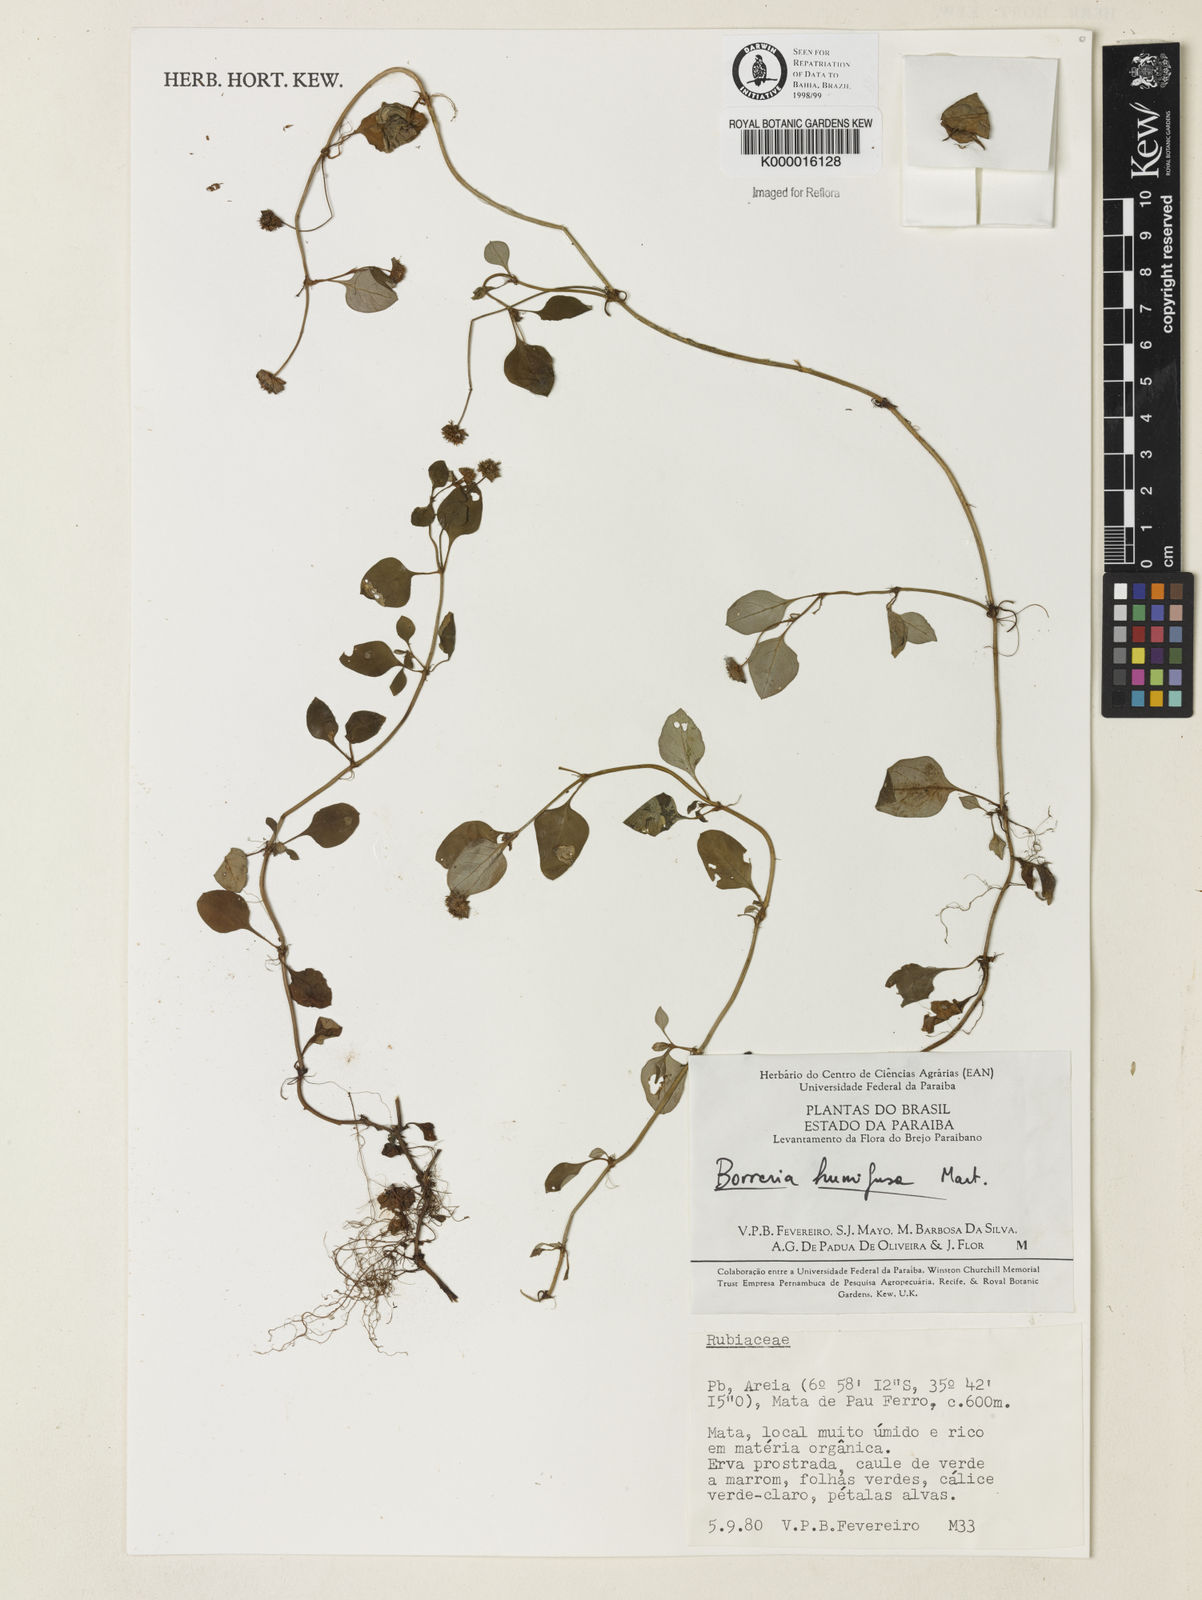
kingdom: Plantae
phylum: Tracheophyta
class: Magnoliopsida
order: Gentianales
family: Rubiaceae
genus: Spermacoce
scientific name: Spermacoce scabiosoides
